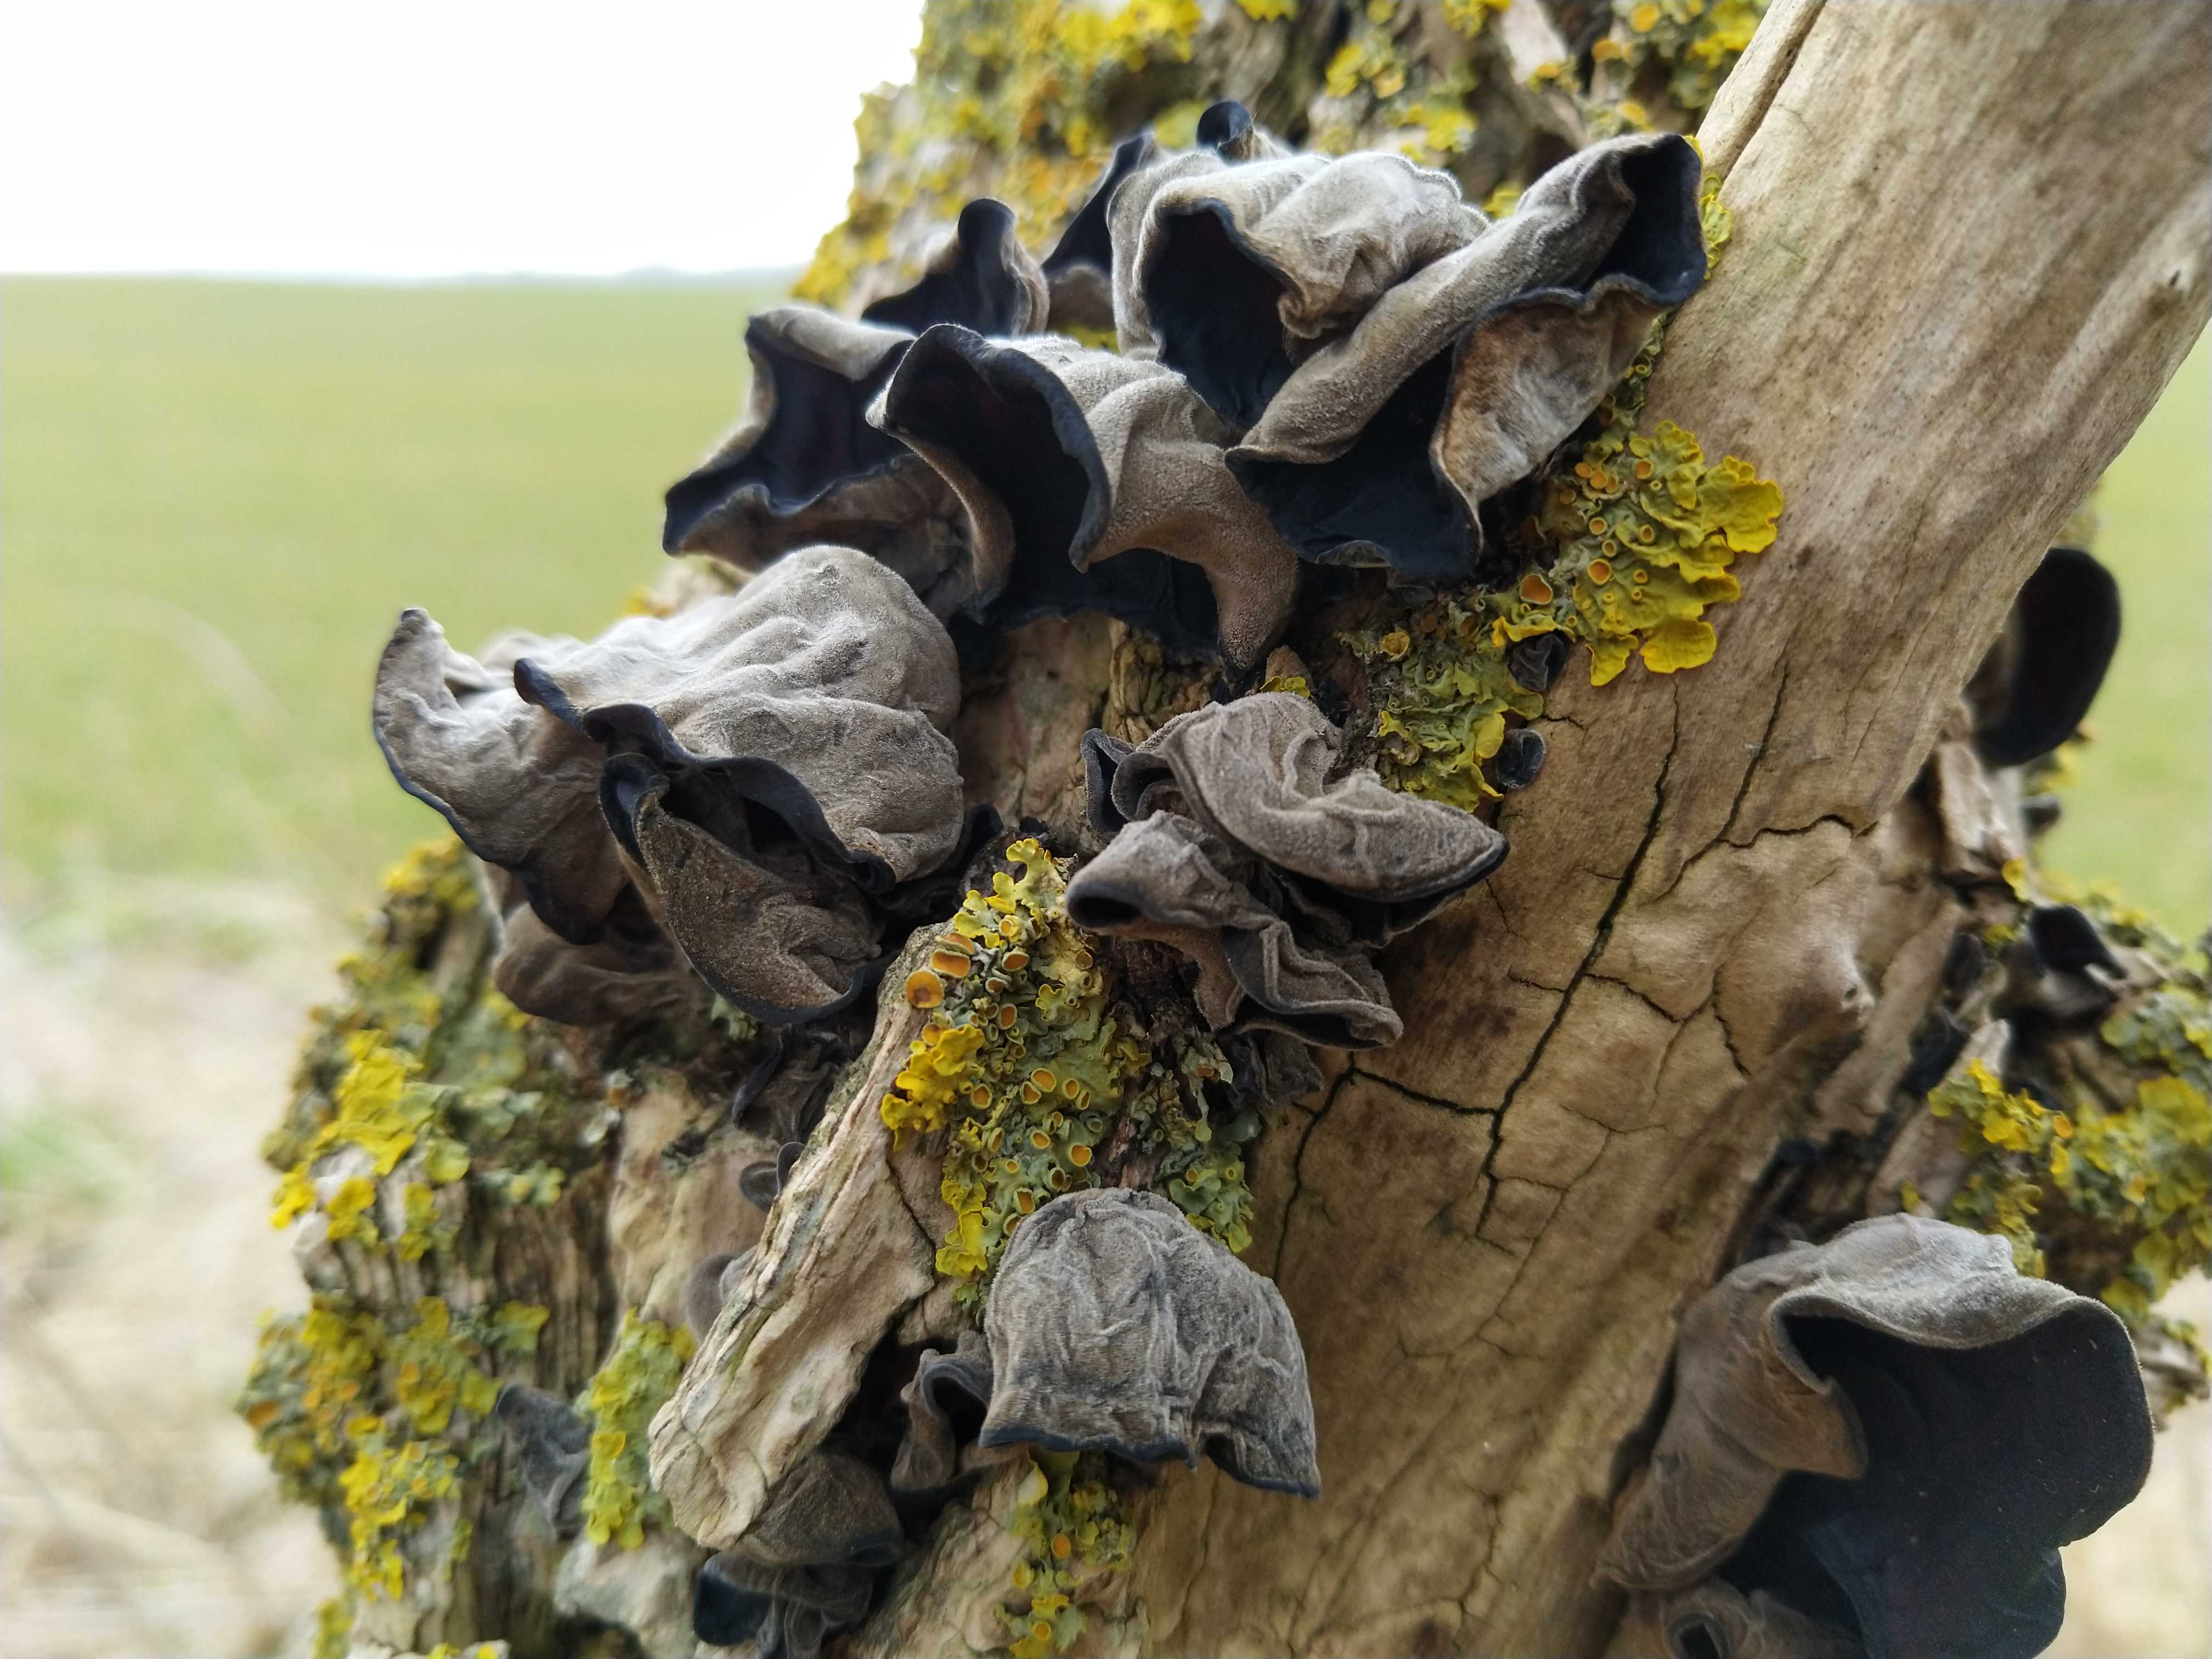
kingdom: Fungi
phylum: Basidiomycota
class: Agaricomycetes
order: Auriculariales
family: Auriculariaceae
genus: Auricularia
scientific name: Auricularia auricula-judae
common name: almindelig judasøre
